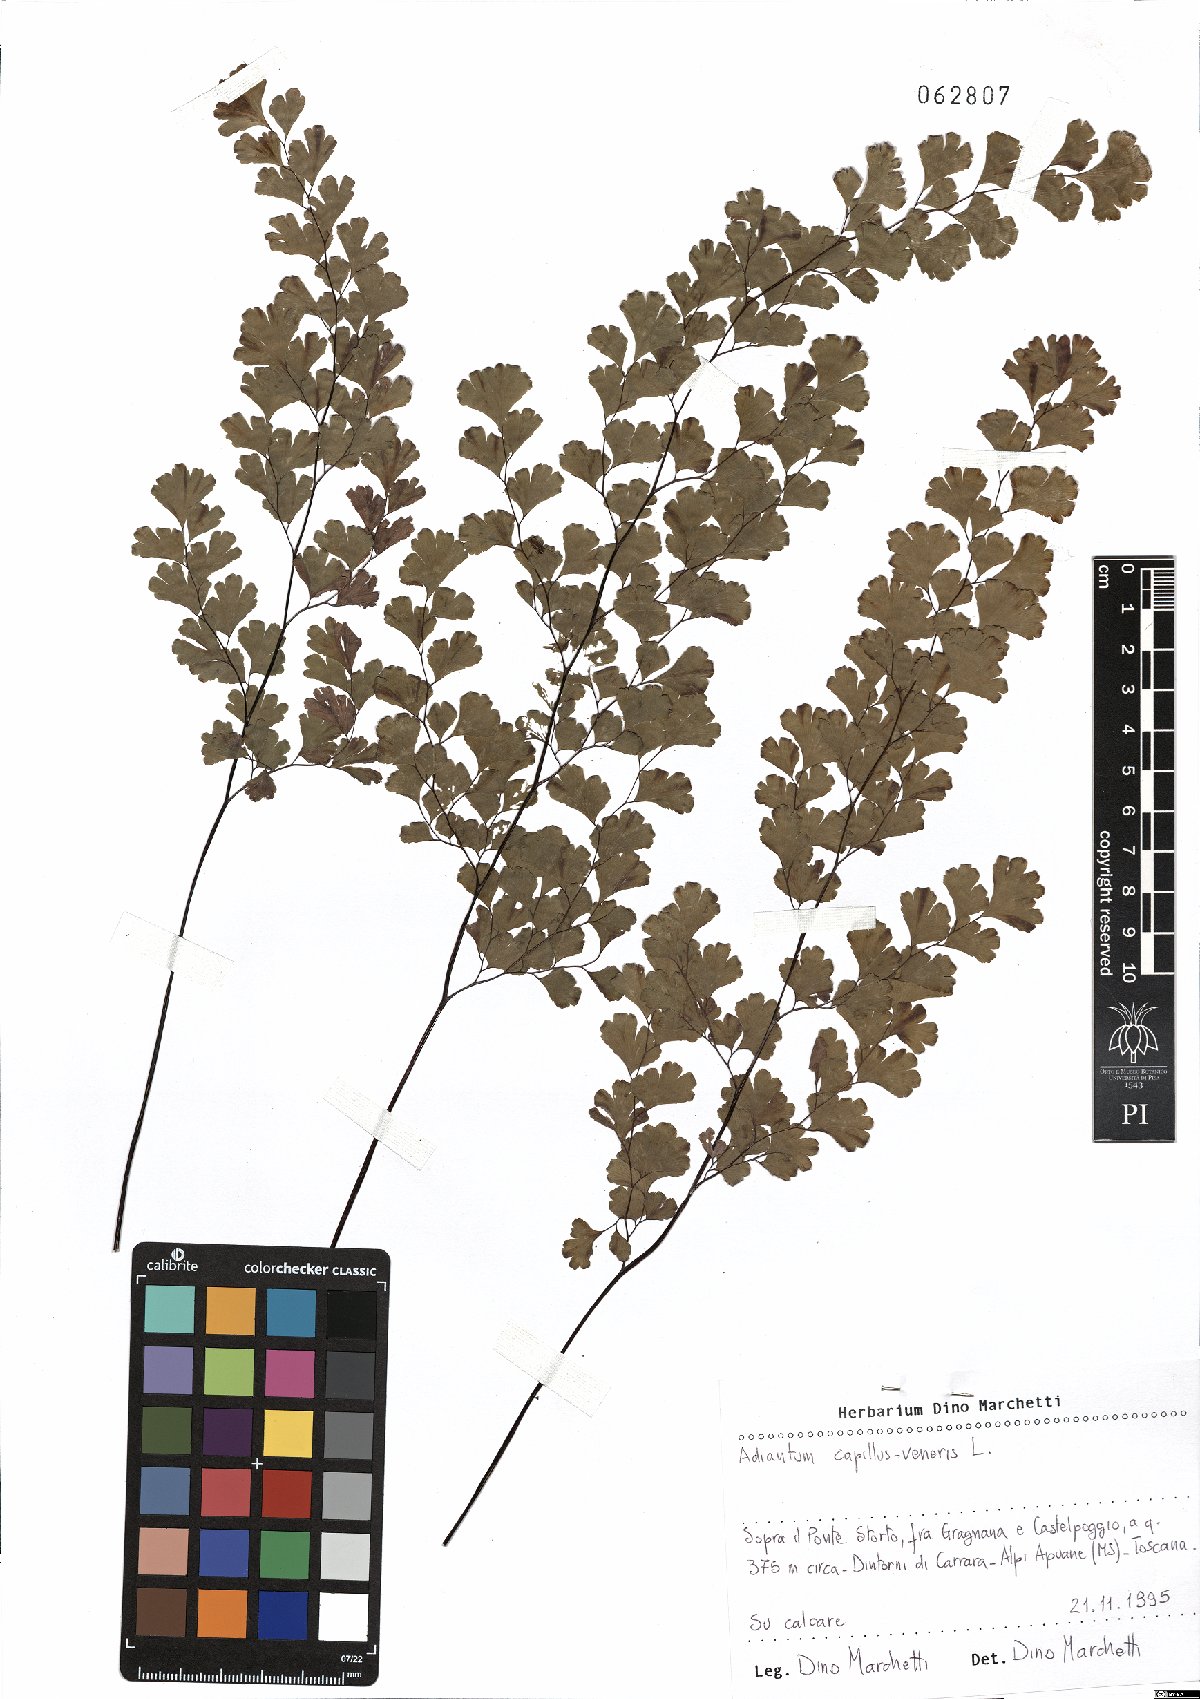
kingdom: Plantae
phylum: Tracheophyta
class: Polypodiopsida
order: Polypodiales
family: Pteridaceae
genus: Adiantum
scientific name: Adiantum capillus-veneris
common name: Maidenhair fern
